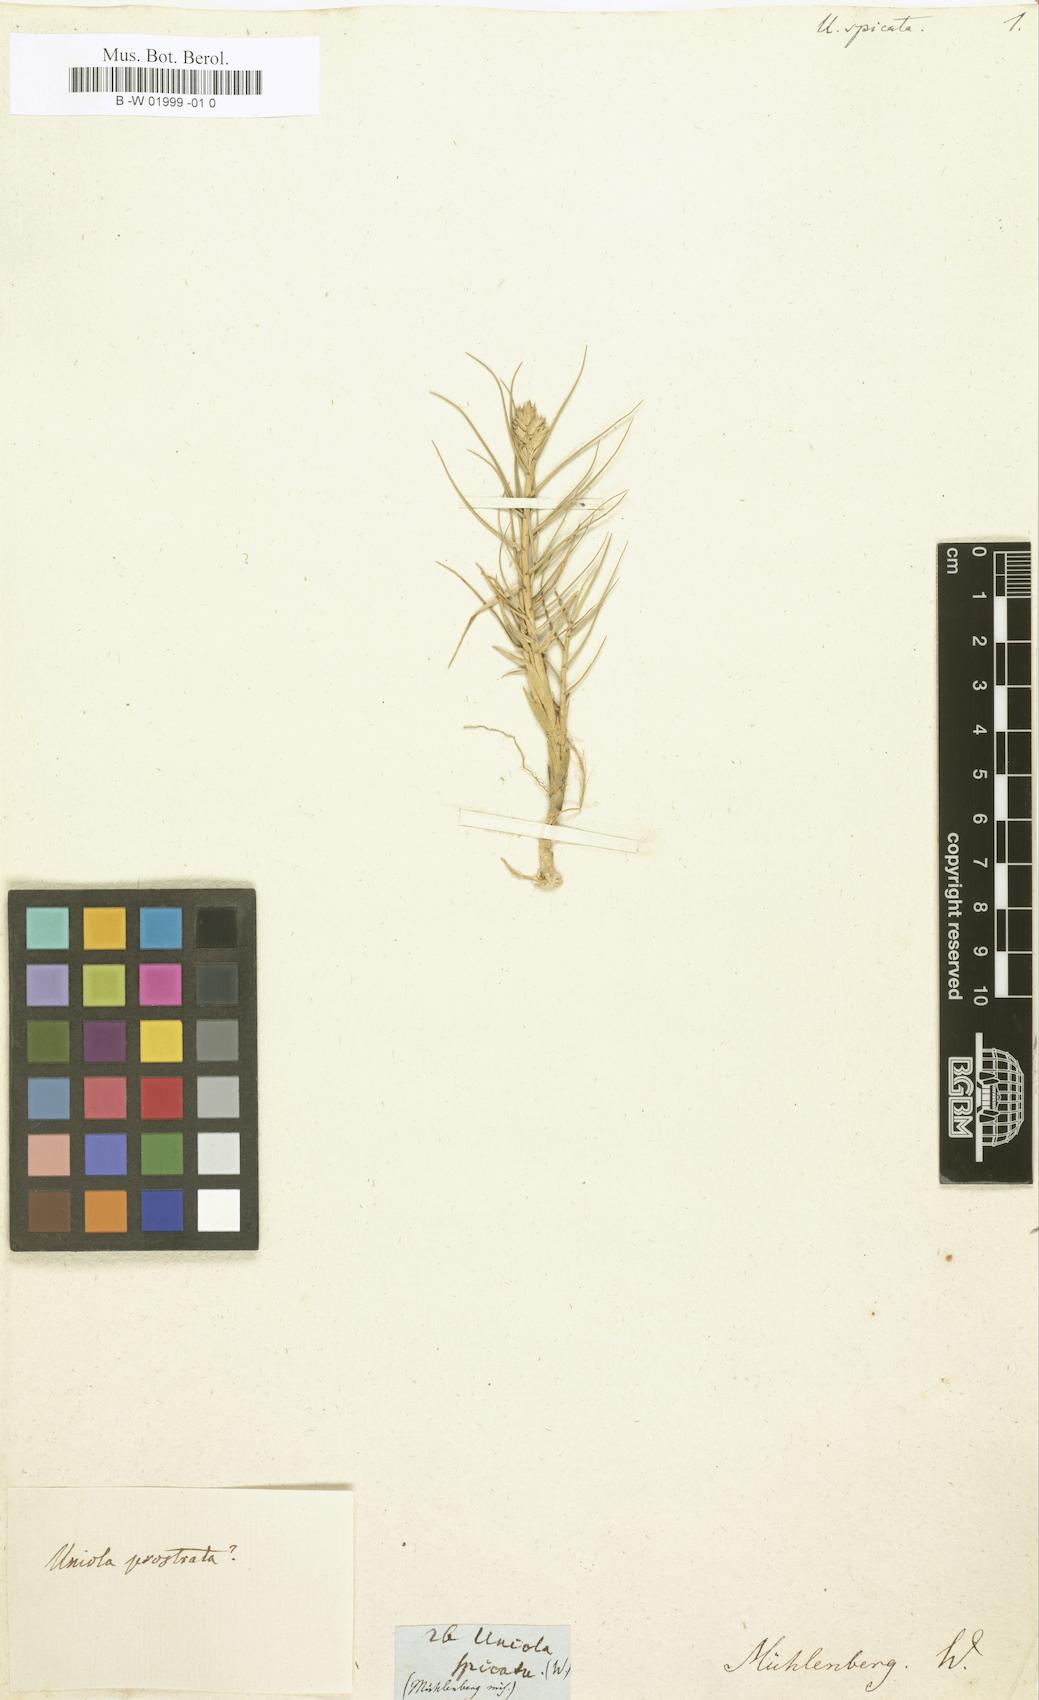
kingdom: Plantae
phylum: Tracheophyta
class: Liliopsida
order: Poales
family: Poaceae
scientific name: Poaceae
